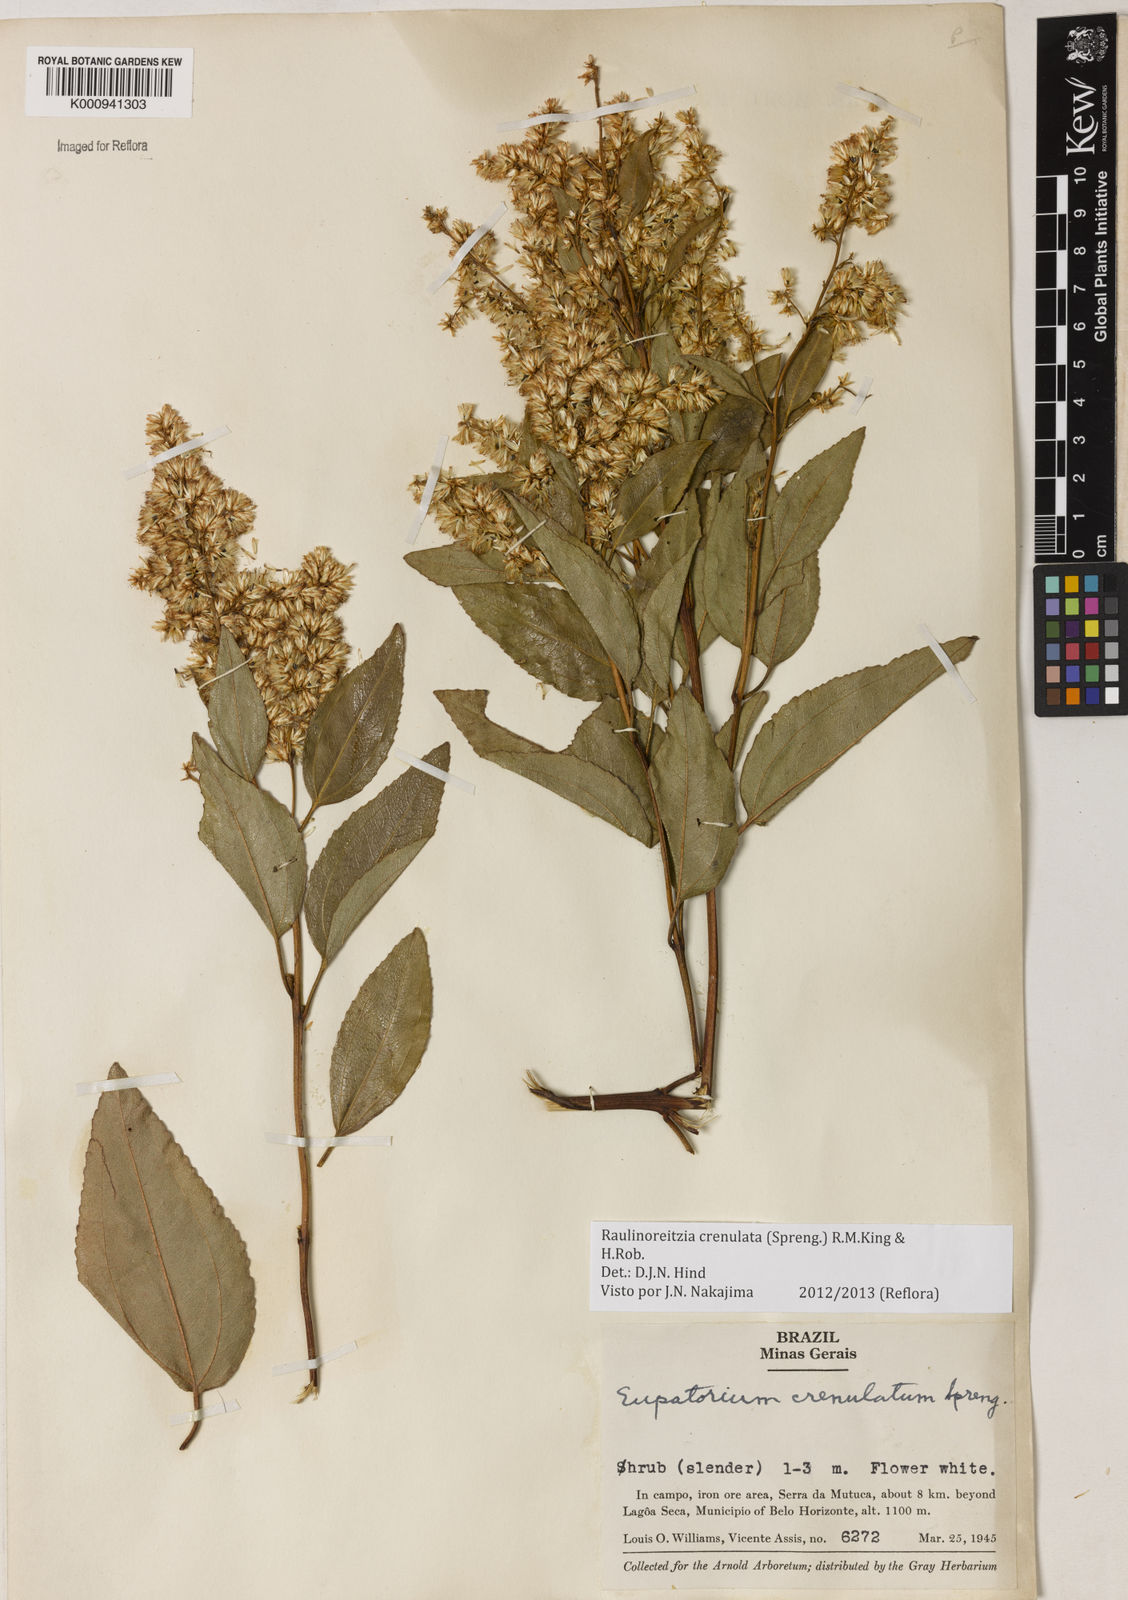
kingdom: Plantae
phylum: Tracheophyta
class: Magnoliopsida
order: Asterales
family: Asteraceae
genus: Raulinoreitzia
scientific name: Raulinoreitzia crenulata
